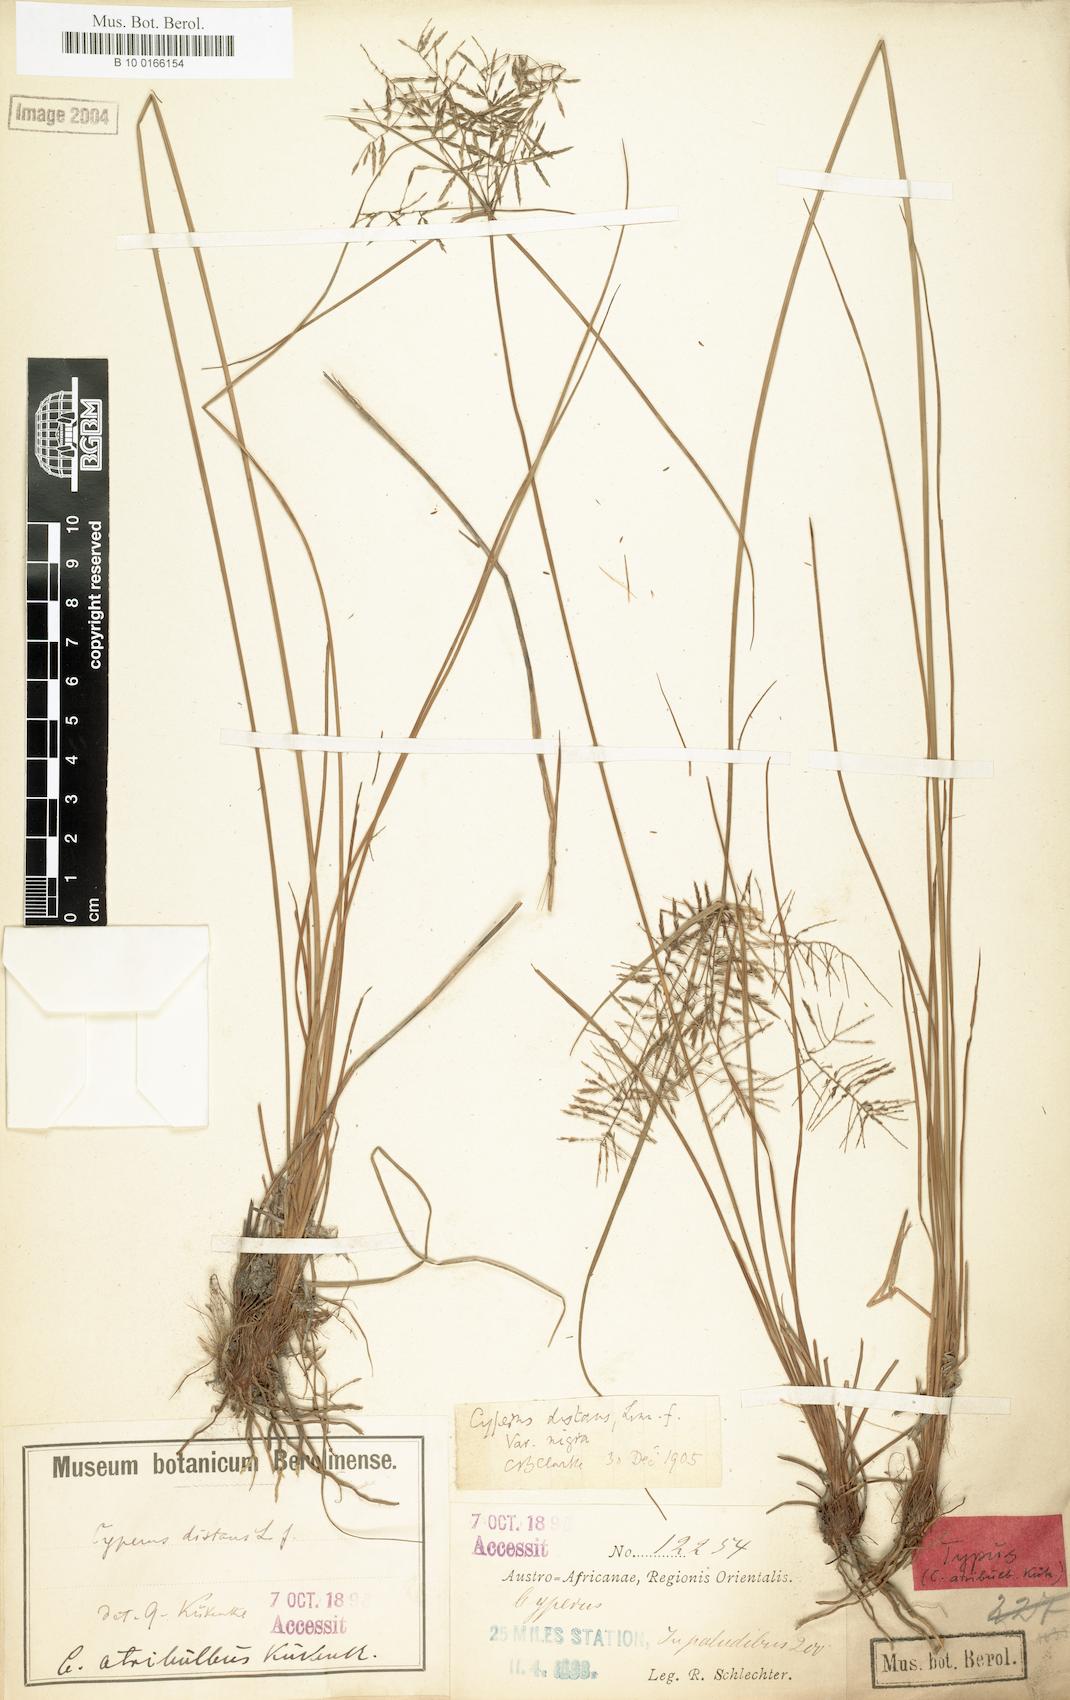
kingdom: Plantae
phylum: Tracheophyta
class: Liliopsida
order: Poales
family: Cyperaceae
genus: Cyperus
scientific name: Cyperus intactus
